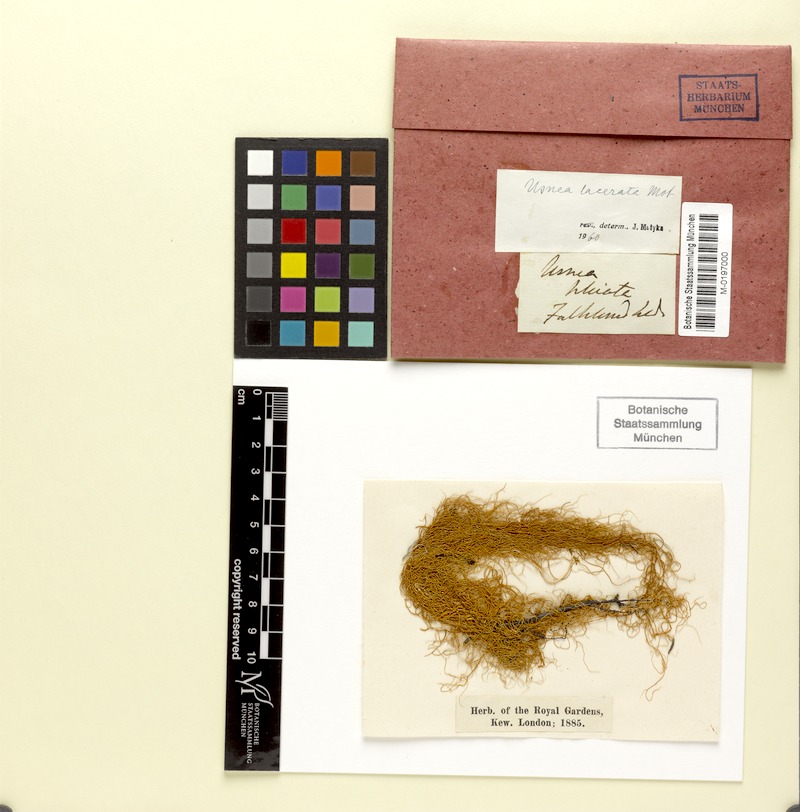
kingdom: Fungi
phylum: Ascomycota
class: Lecanoromycetes
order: Lecanorales
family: Parmeliaceae
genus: Usnea
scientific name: Usnea lacerata
